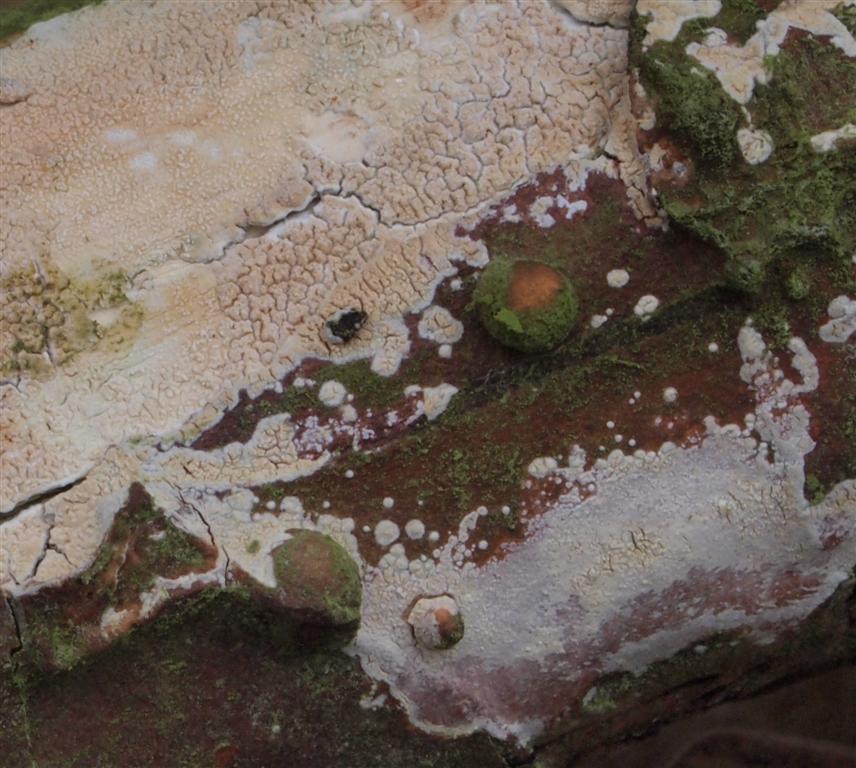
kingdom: Fungi
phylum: Basidiomycota
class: Agaricomycetes
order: Corticiales
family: Corticiaceae
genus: Lyomyces
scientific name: Lyomyces crustosus
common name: vortet hyldehinde
